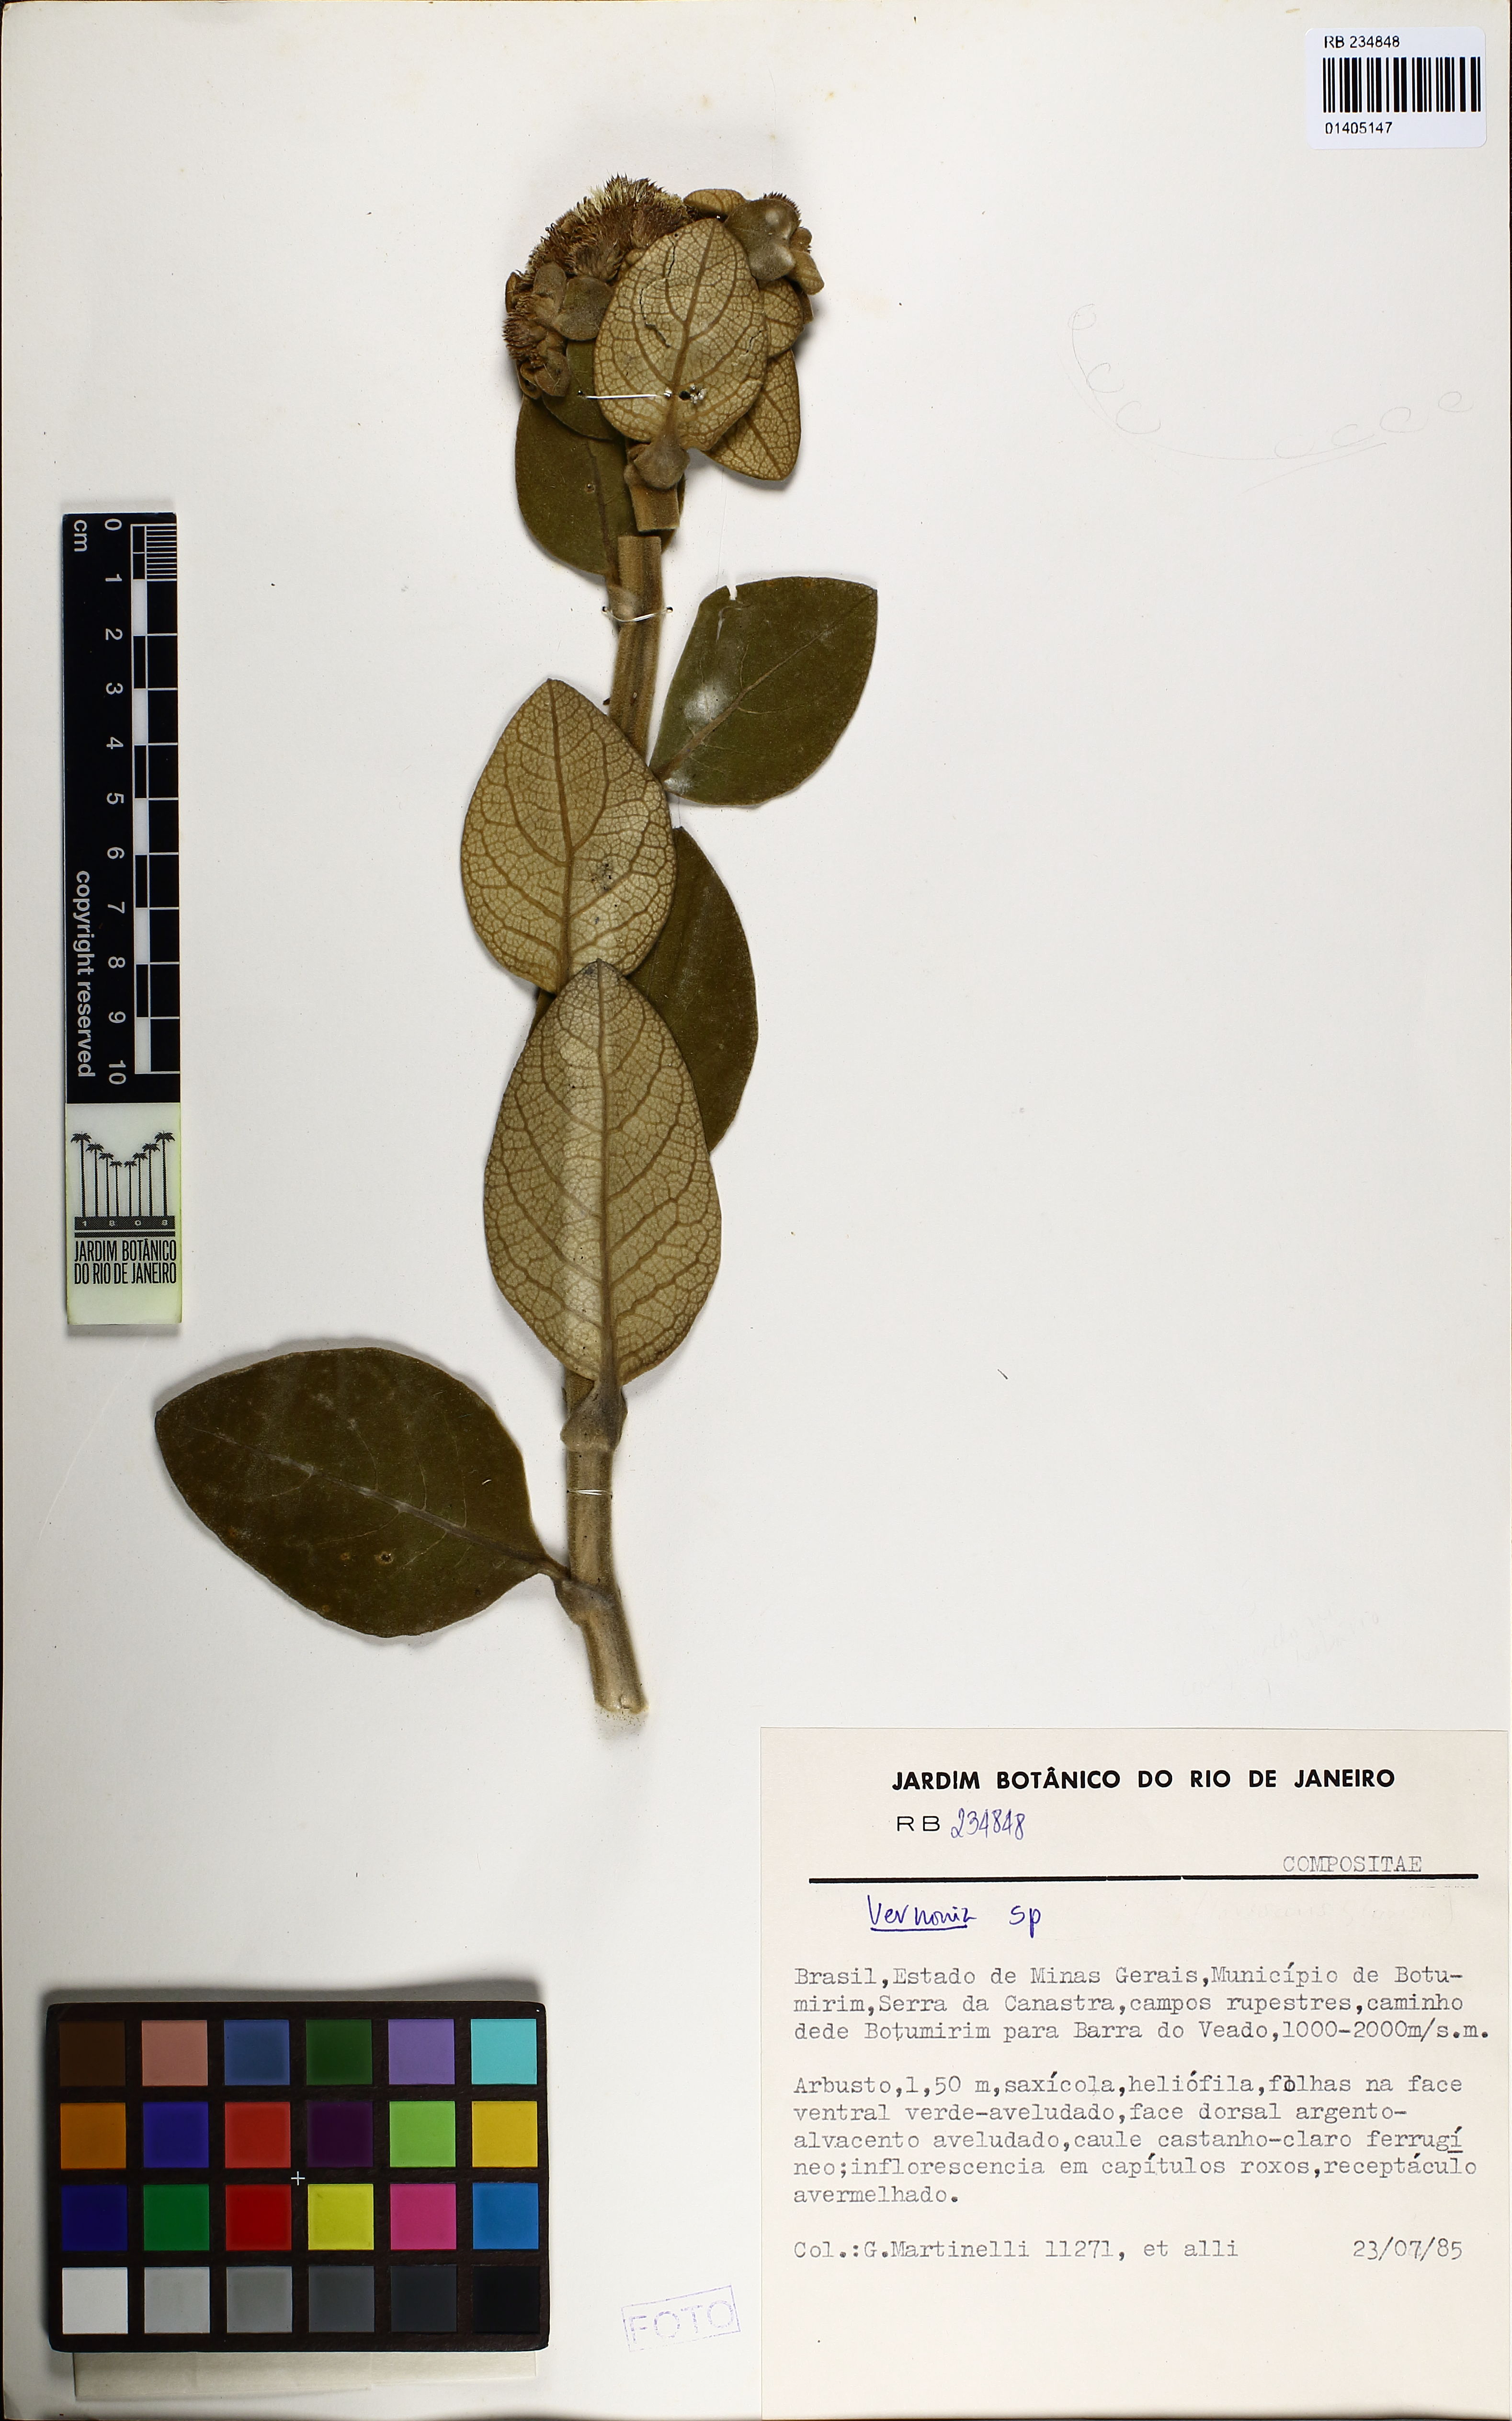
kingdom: Plantae
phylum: Tracheophyta
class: Magnoliopsida
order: Asterales
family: Asteraceae
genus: Vernonia
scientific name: Vernonia
